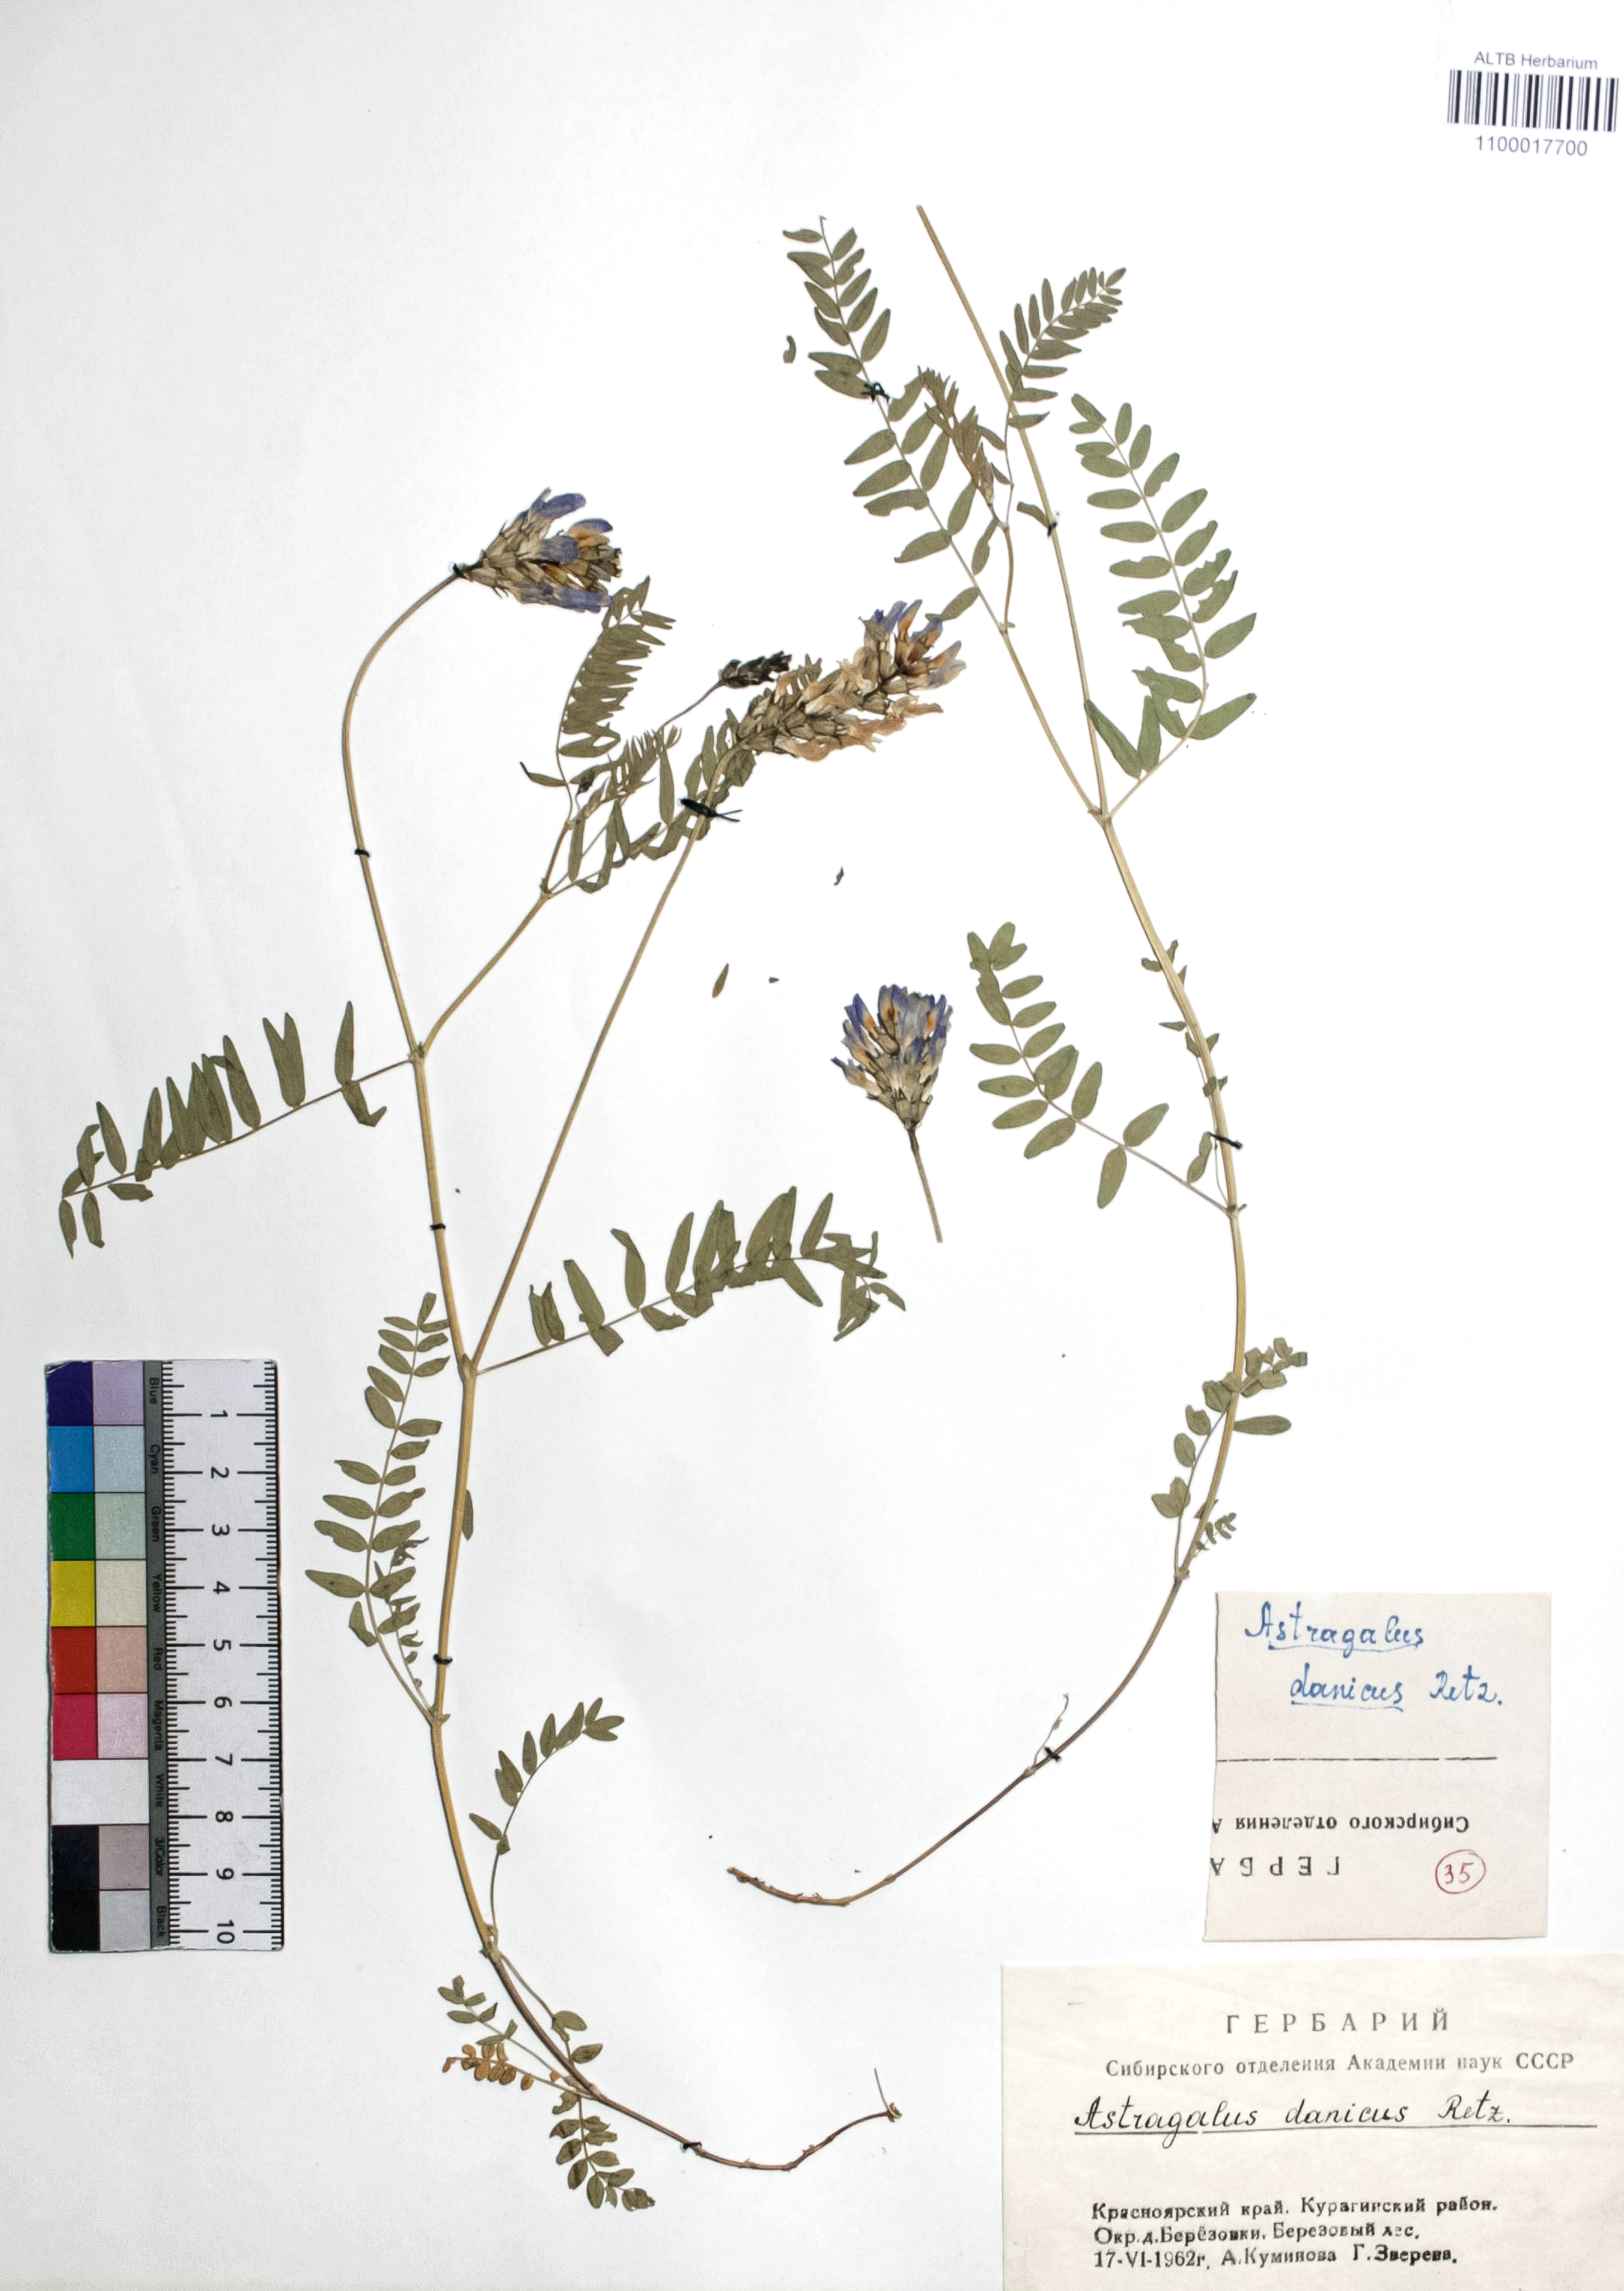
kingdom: Plantae
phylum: Tracheophyta
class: Magnoliopsida
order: Fabales
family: Fabaceae
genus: Astragalus
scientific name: Astragalus danicus
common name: Purple milk-vetch
